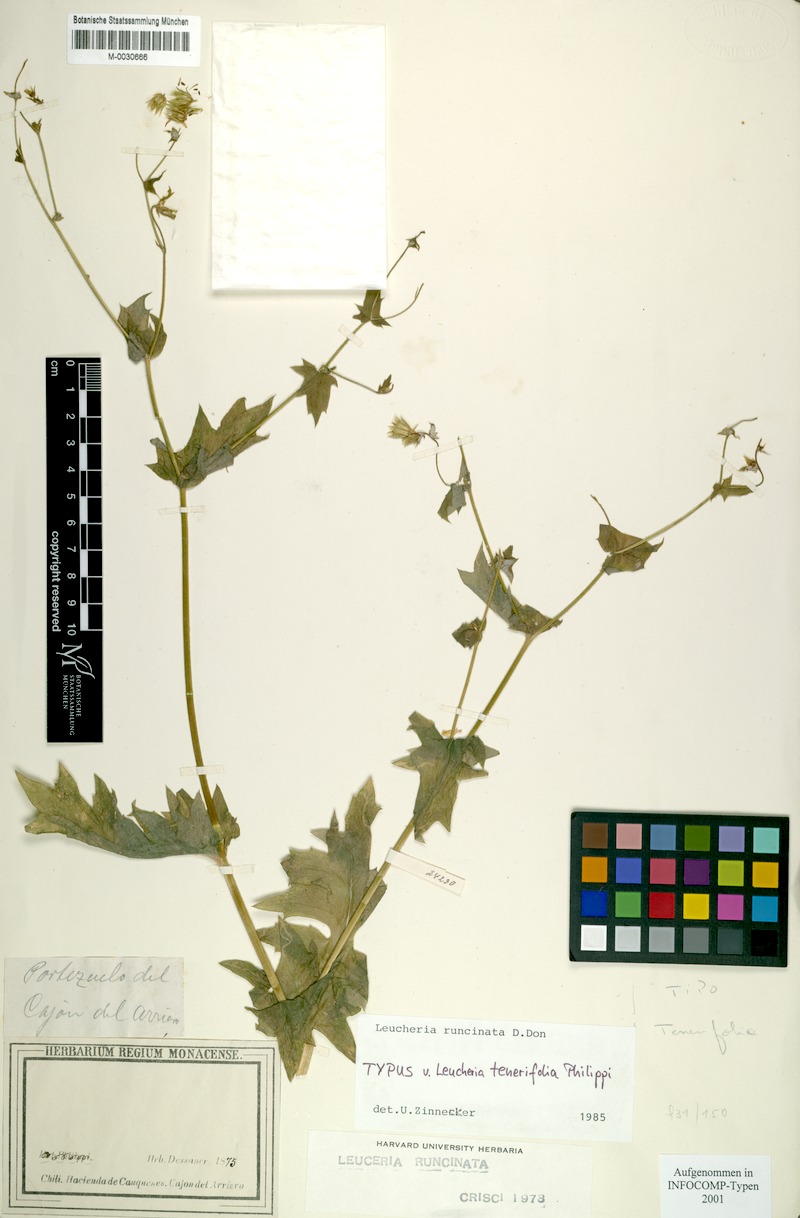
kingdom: Plantae
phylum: Tracheophyta
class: Magnoliopsida
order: Asterales
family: Asteraceae
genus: Leucheria
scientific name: Leucheria runcinata
